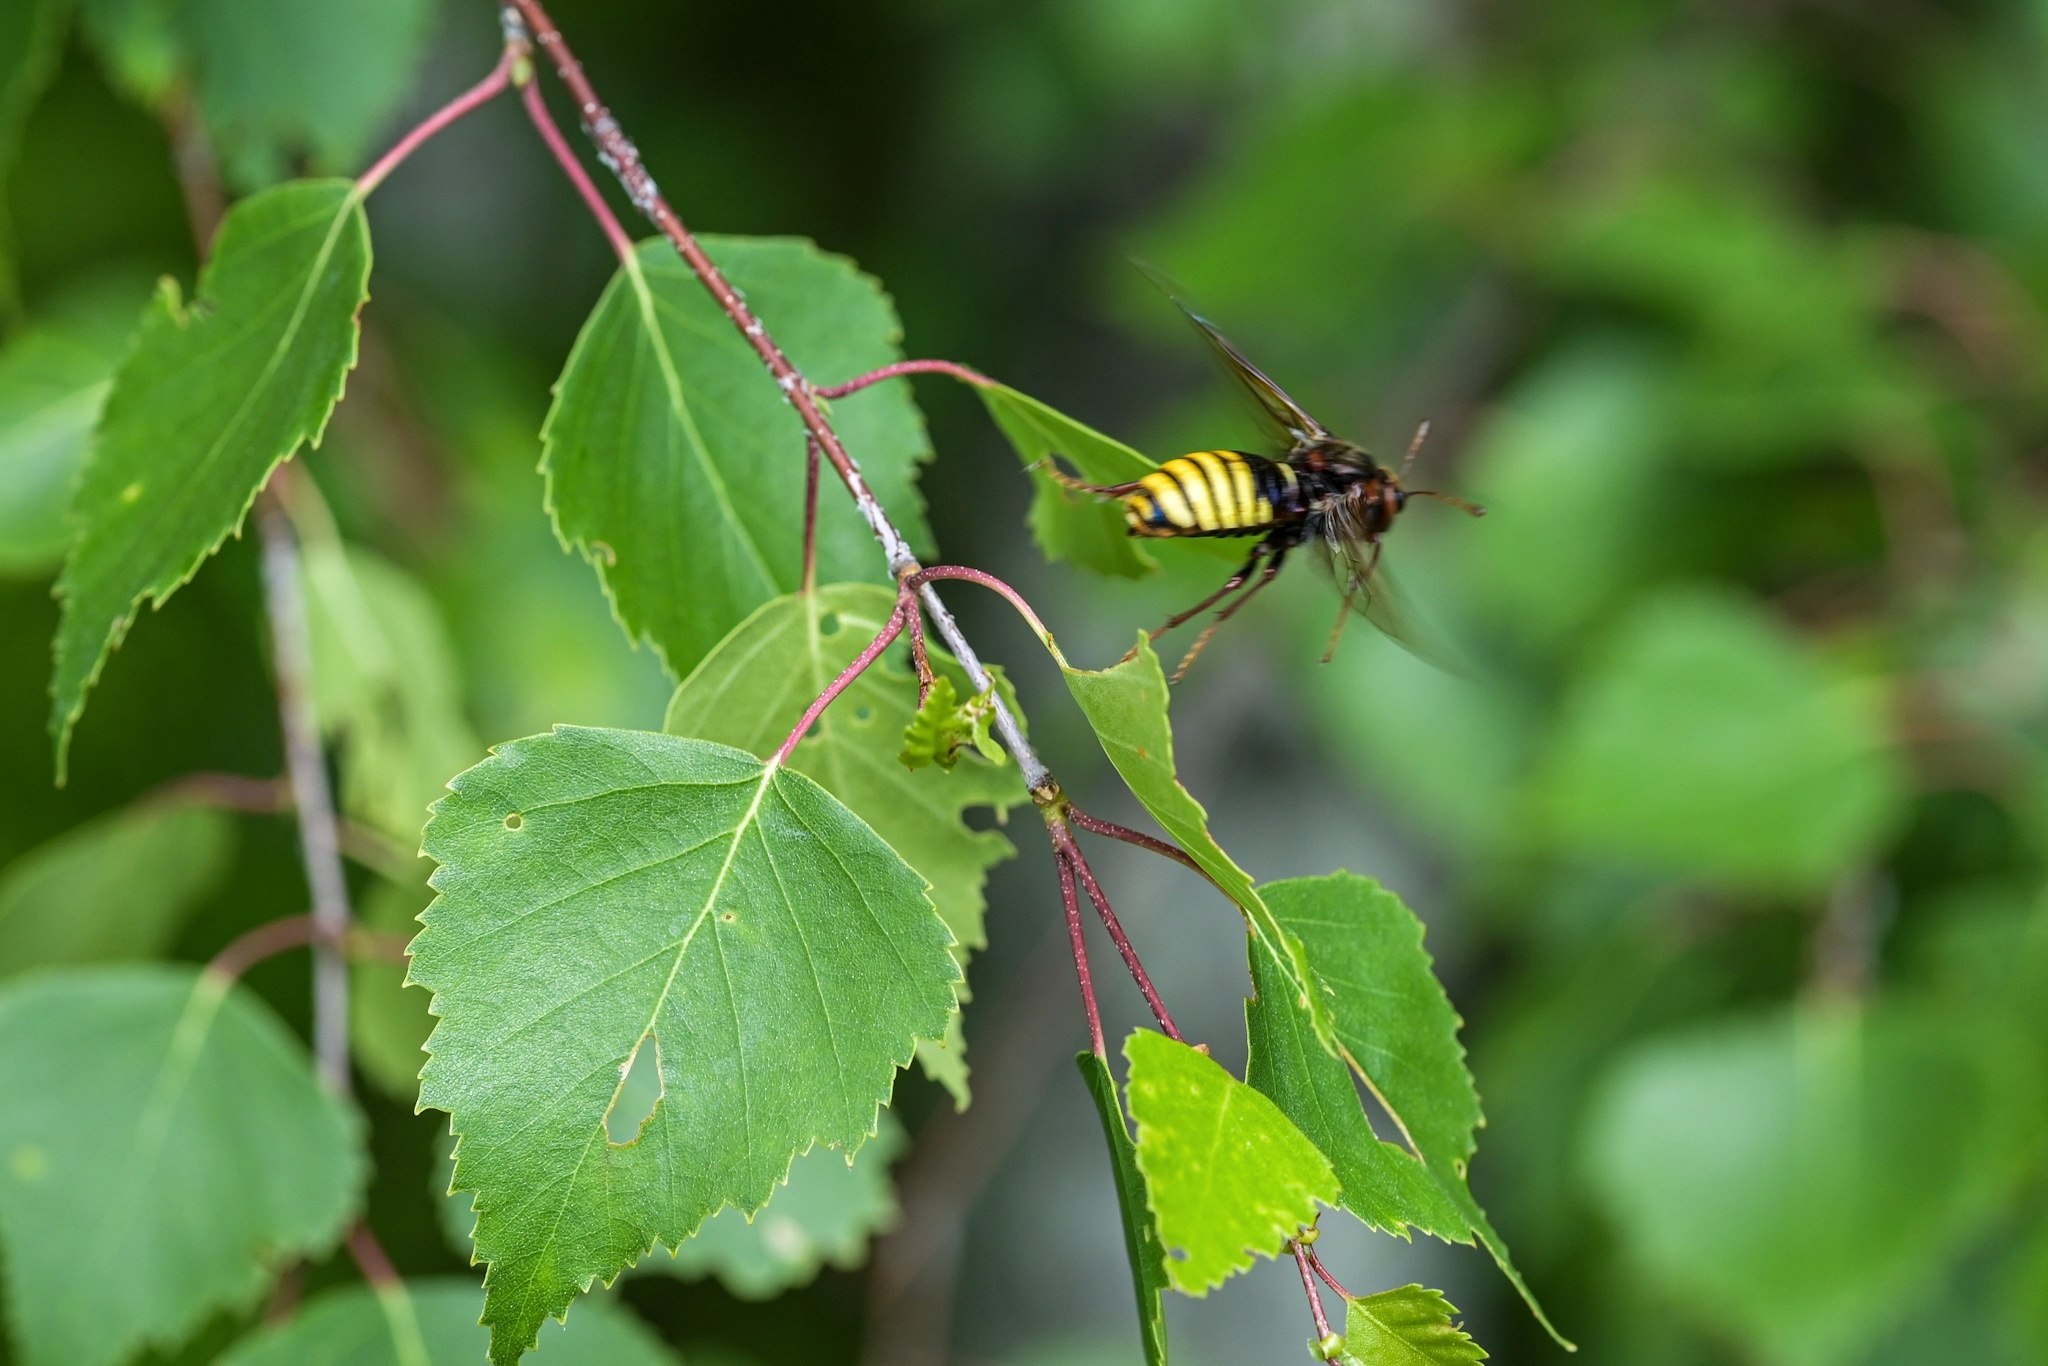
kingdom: Animalia
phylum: Arthropoda
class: Insecta
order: Hymenoptera
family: Cimbicidae
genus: Cimbex
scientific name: Cimbex luteus
